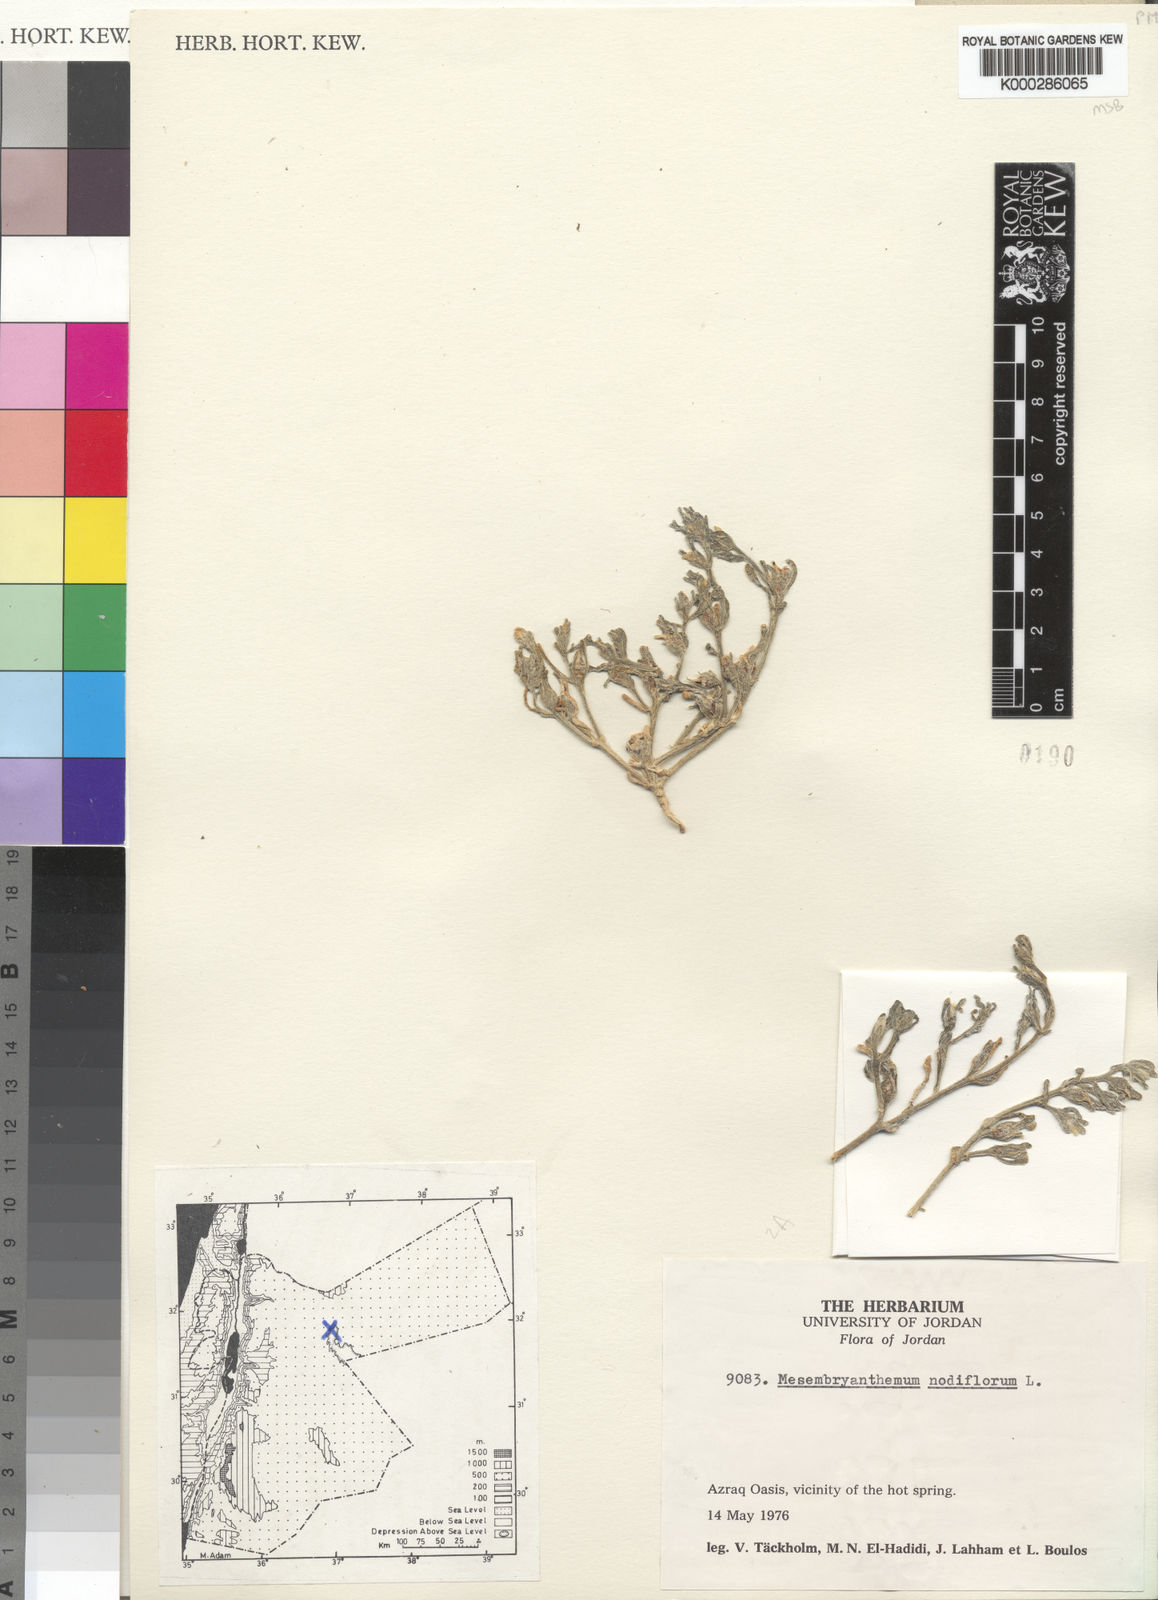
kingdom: Plantae
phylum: Tracheophyta
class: Magnoliopsida
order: Caryophyllales
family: Aizoaceae
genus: Mesembryanthemum
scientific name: Mesembryanthemum nodiflorum
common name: Slenderleaf iceplant
